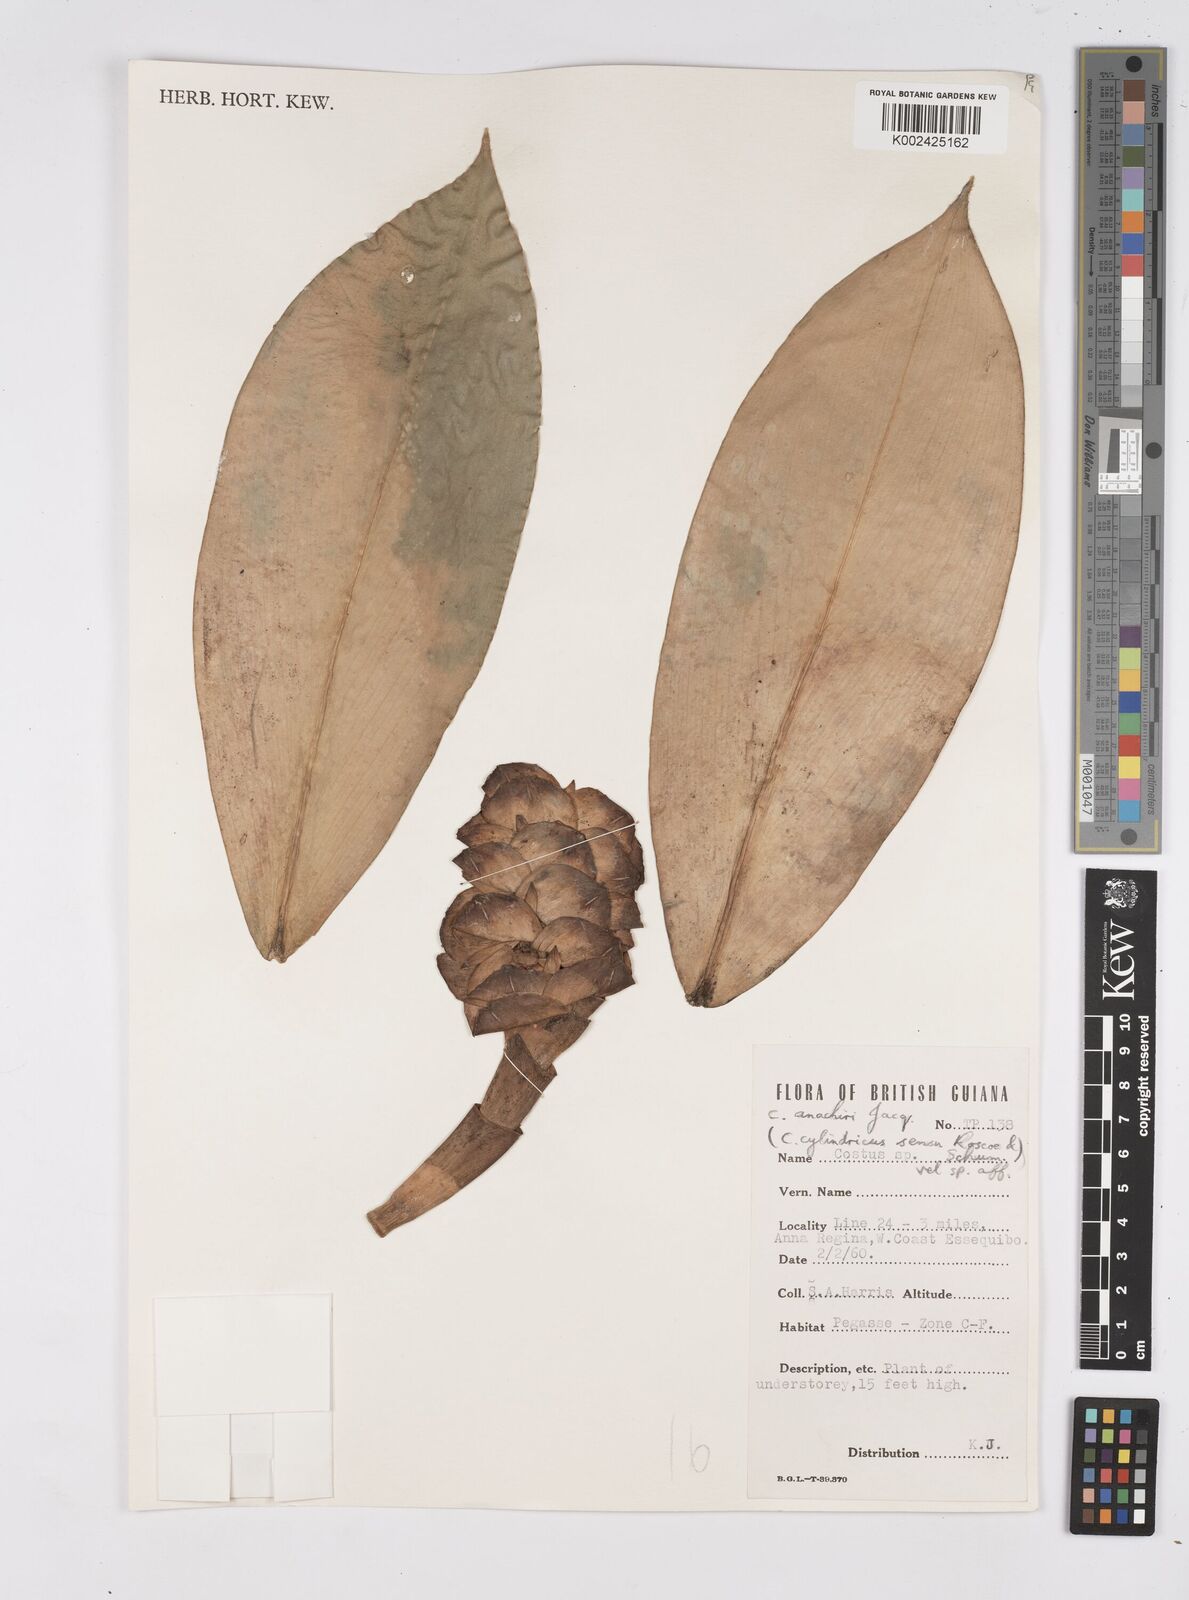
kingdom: Plantae
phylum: Tracheophyta
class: Liliopsida
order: Zingiberales
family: Costaceae
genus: Costus
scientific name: Costus scaber
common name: Spiral head ginger
